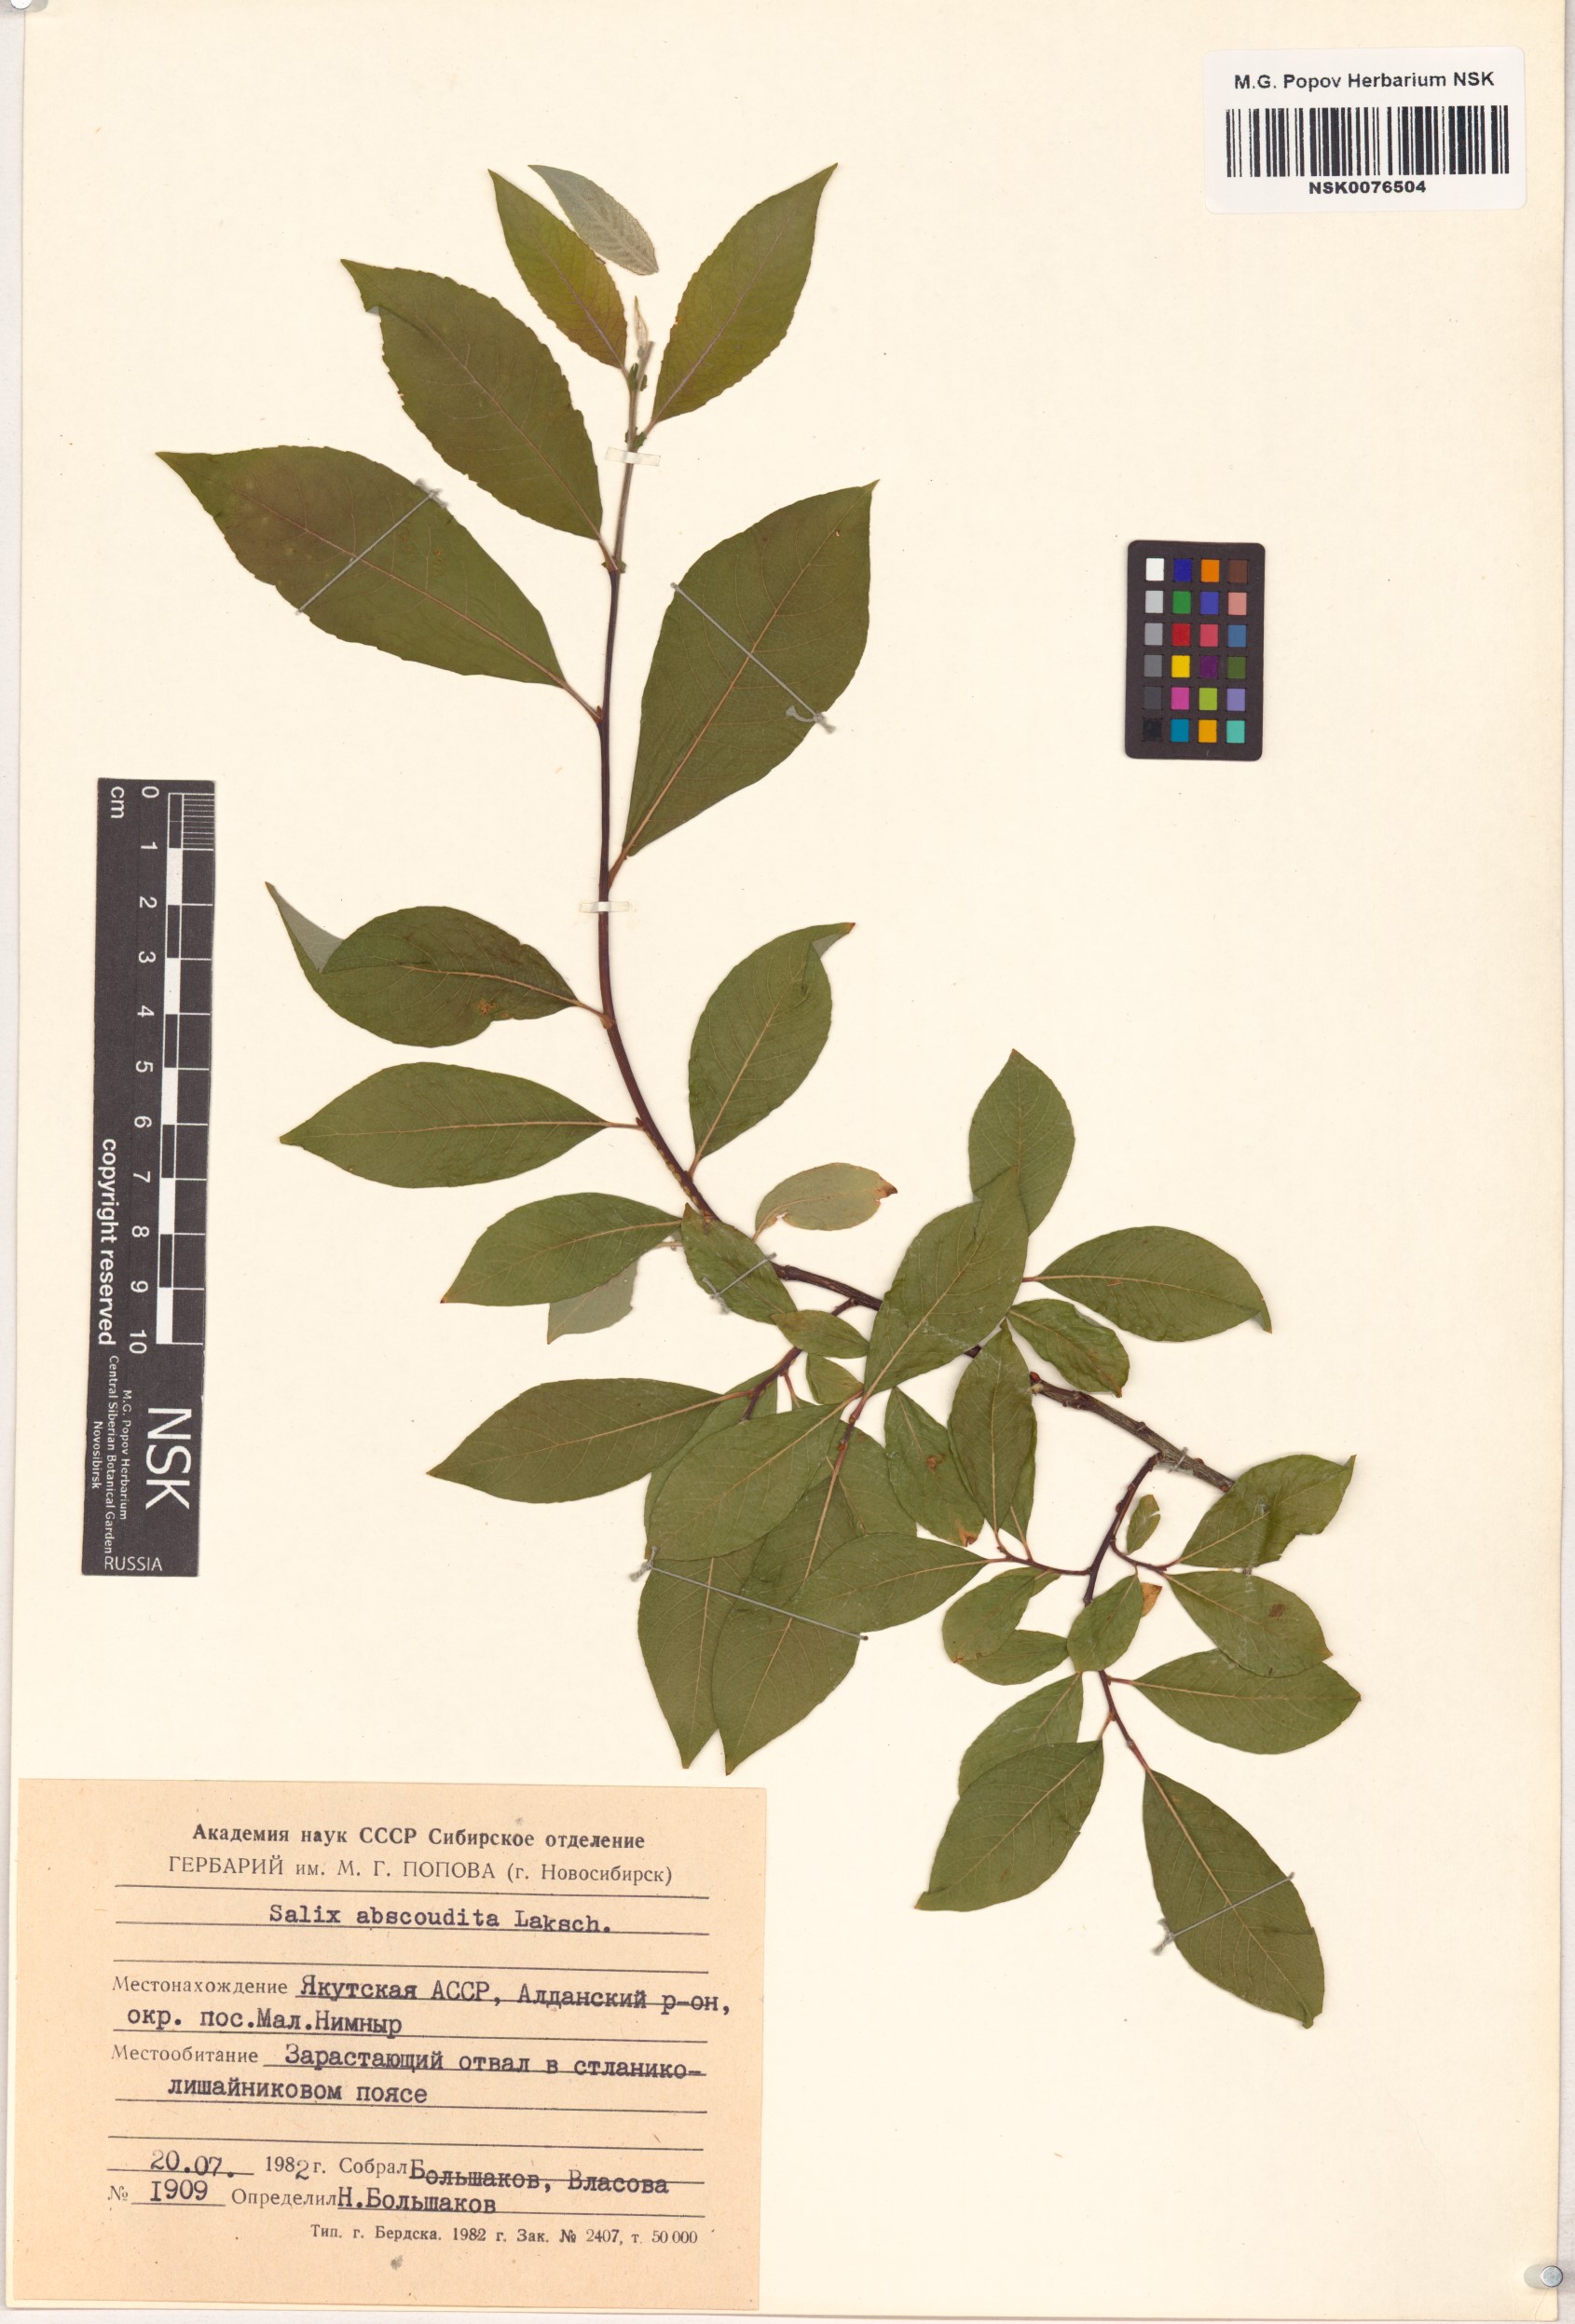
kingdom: Plantae
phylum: Tracheophyta
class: Magnoliopsida
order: Malpighiales
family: Salicaceae
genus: Salix
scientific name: Salix abscondita
